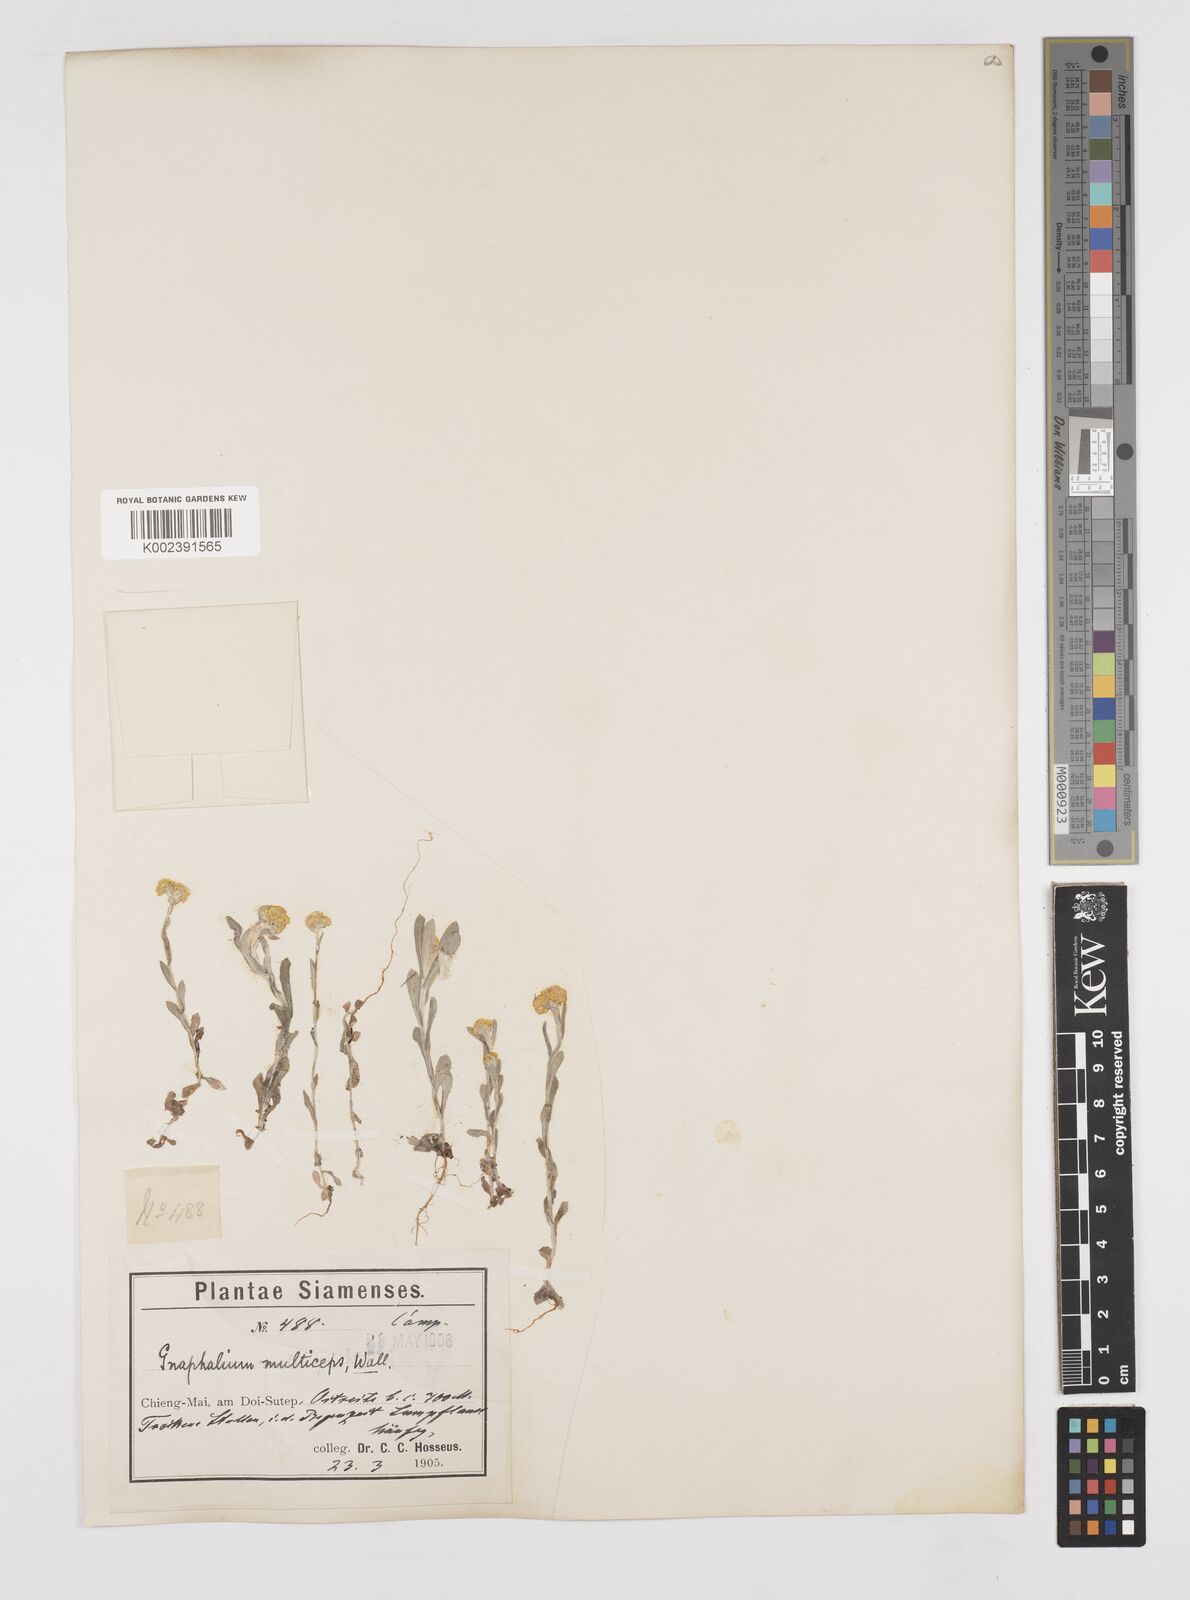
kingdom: Plantae
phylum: Tracheophyta
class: Magnoliopsida
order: Asterales
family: Asteraceae
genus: Pseudognaphalium
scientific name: Pseudognaphalium affine
